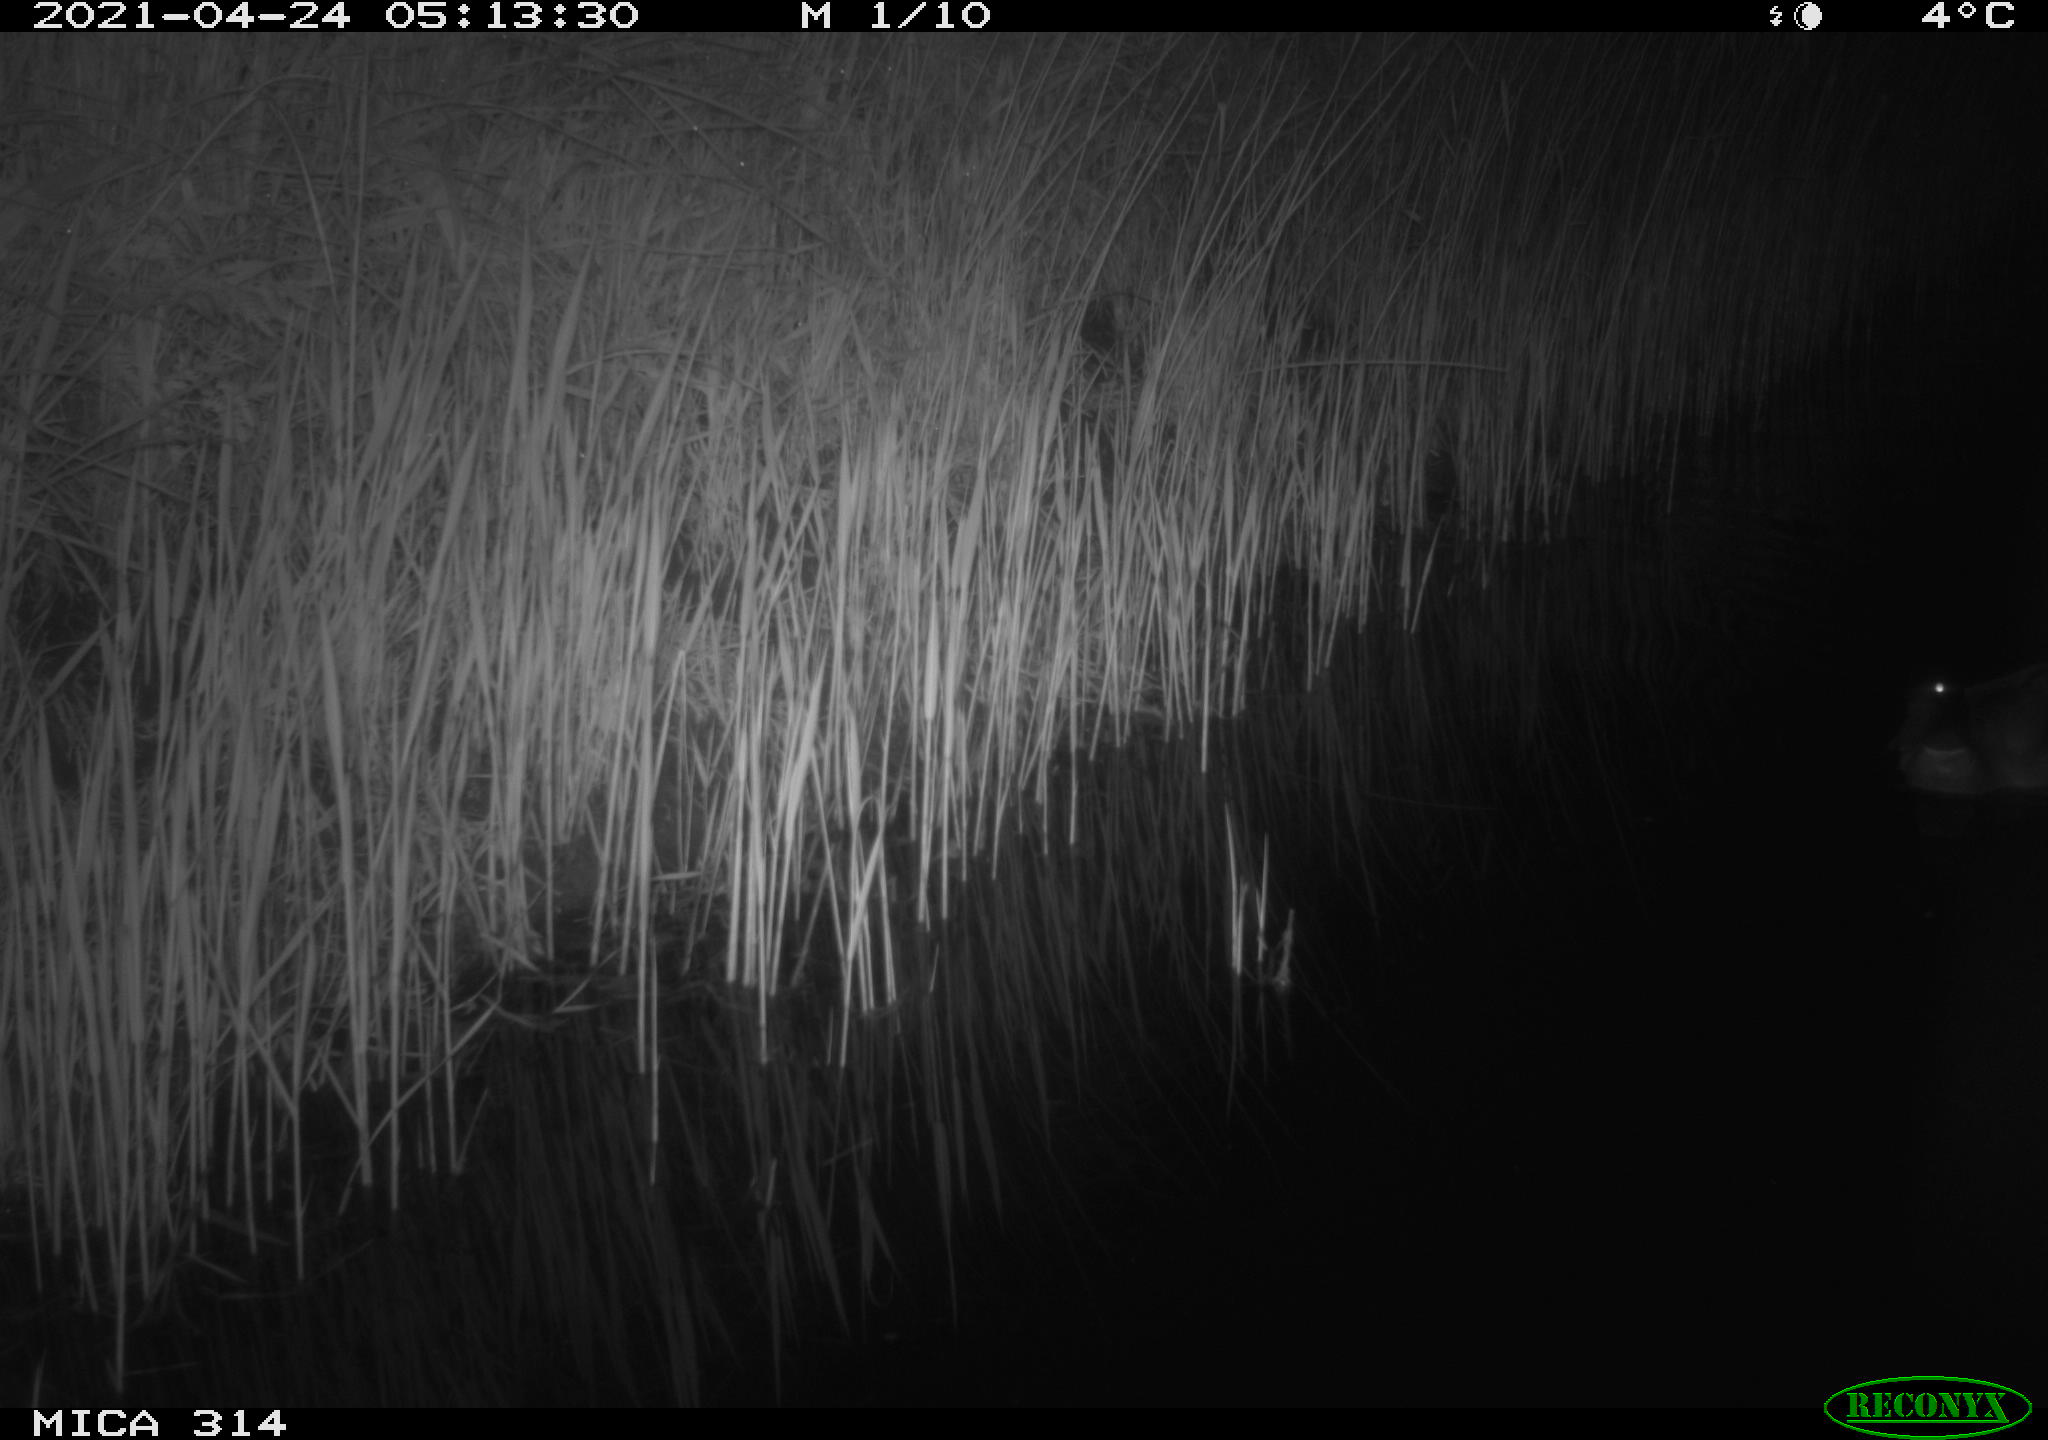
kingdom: Animalia
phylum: Chordata
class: Aves
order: Anseriformes
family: Anatidae
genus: Anas
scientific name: Anas platyrhynchos
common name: Mallard
